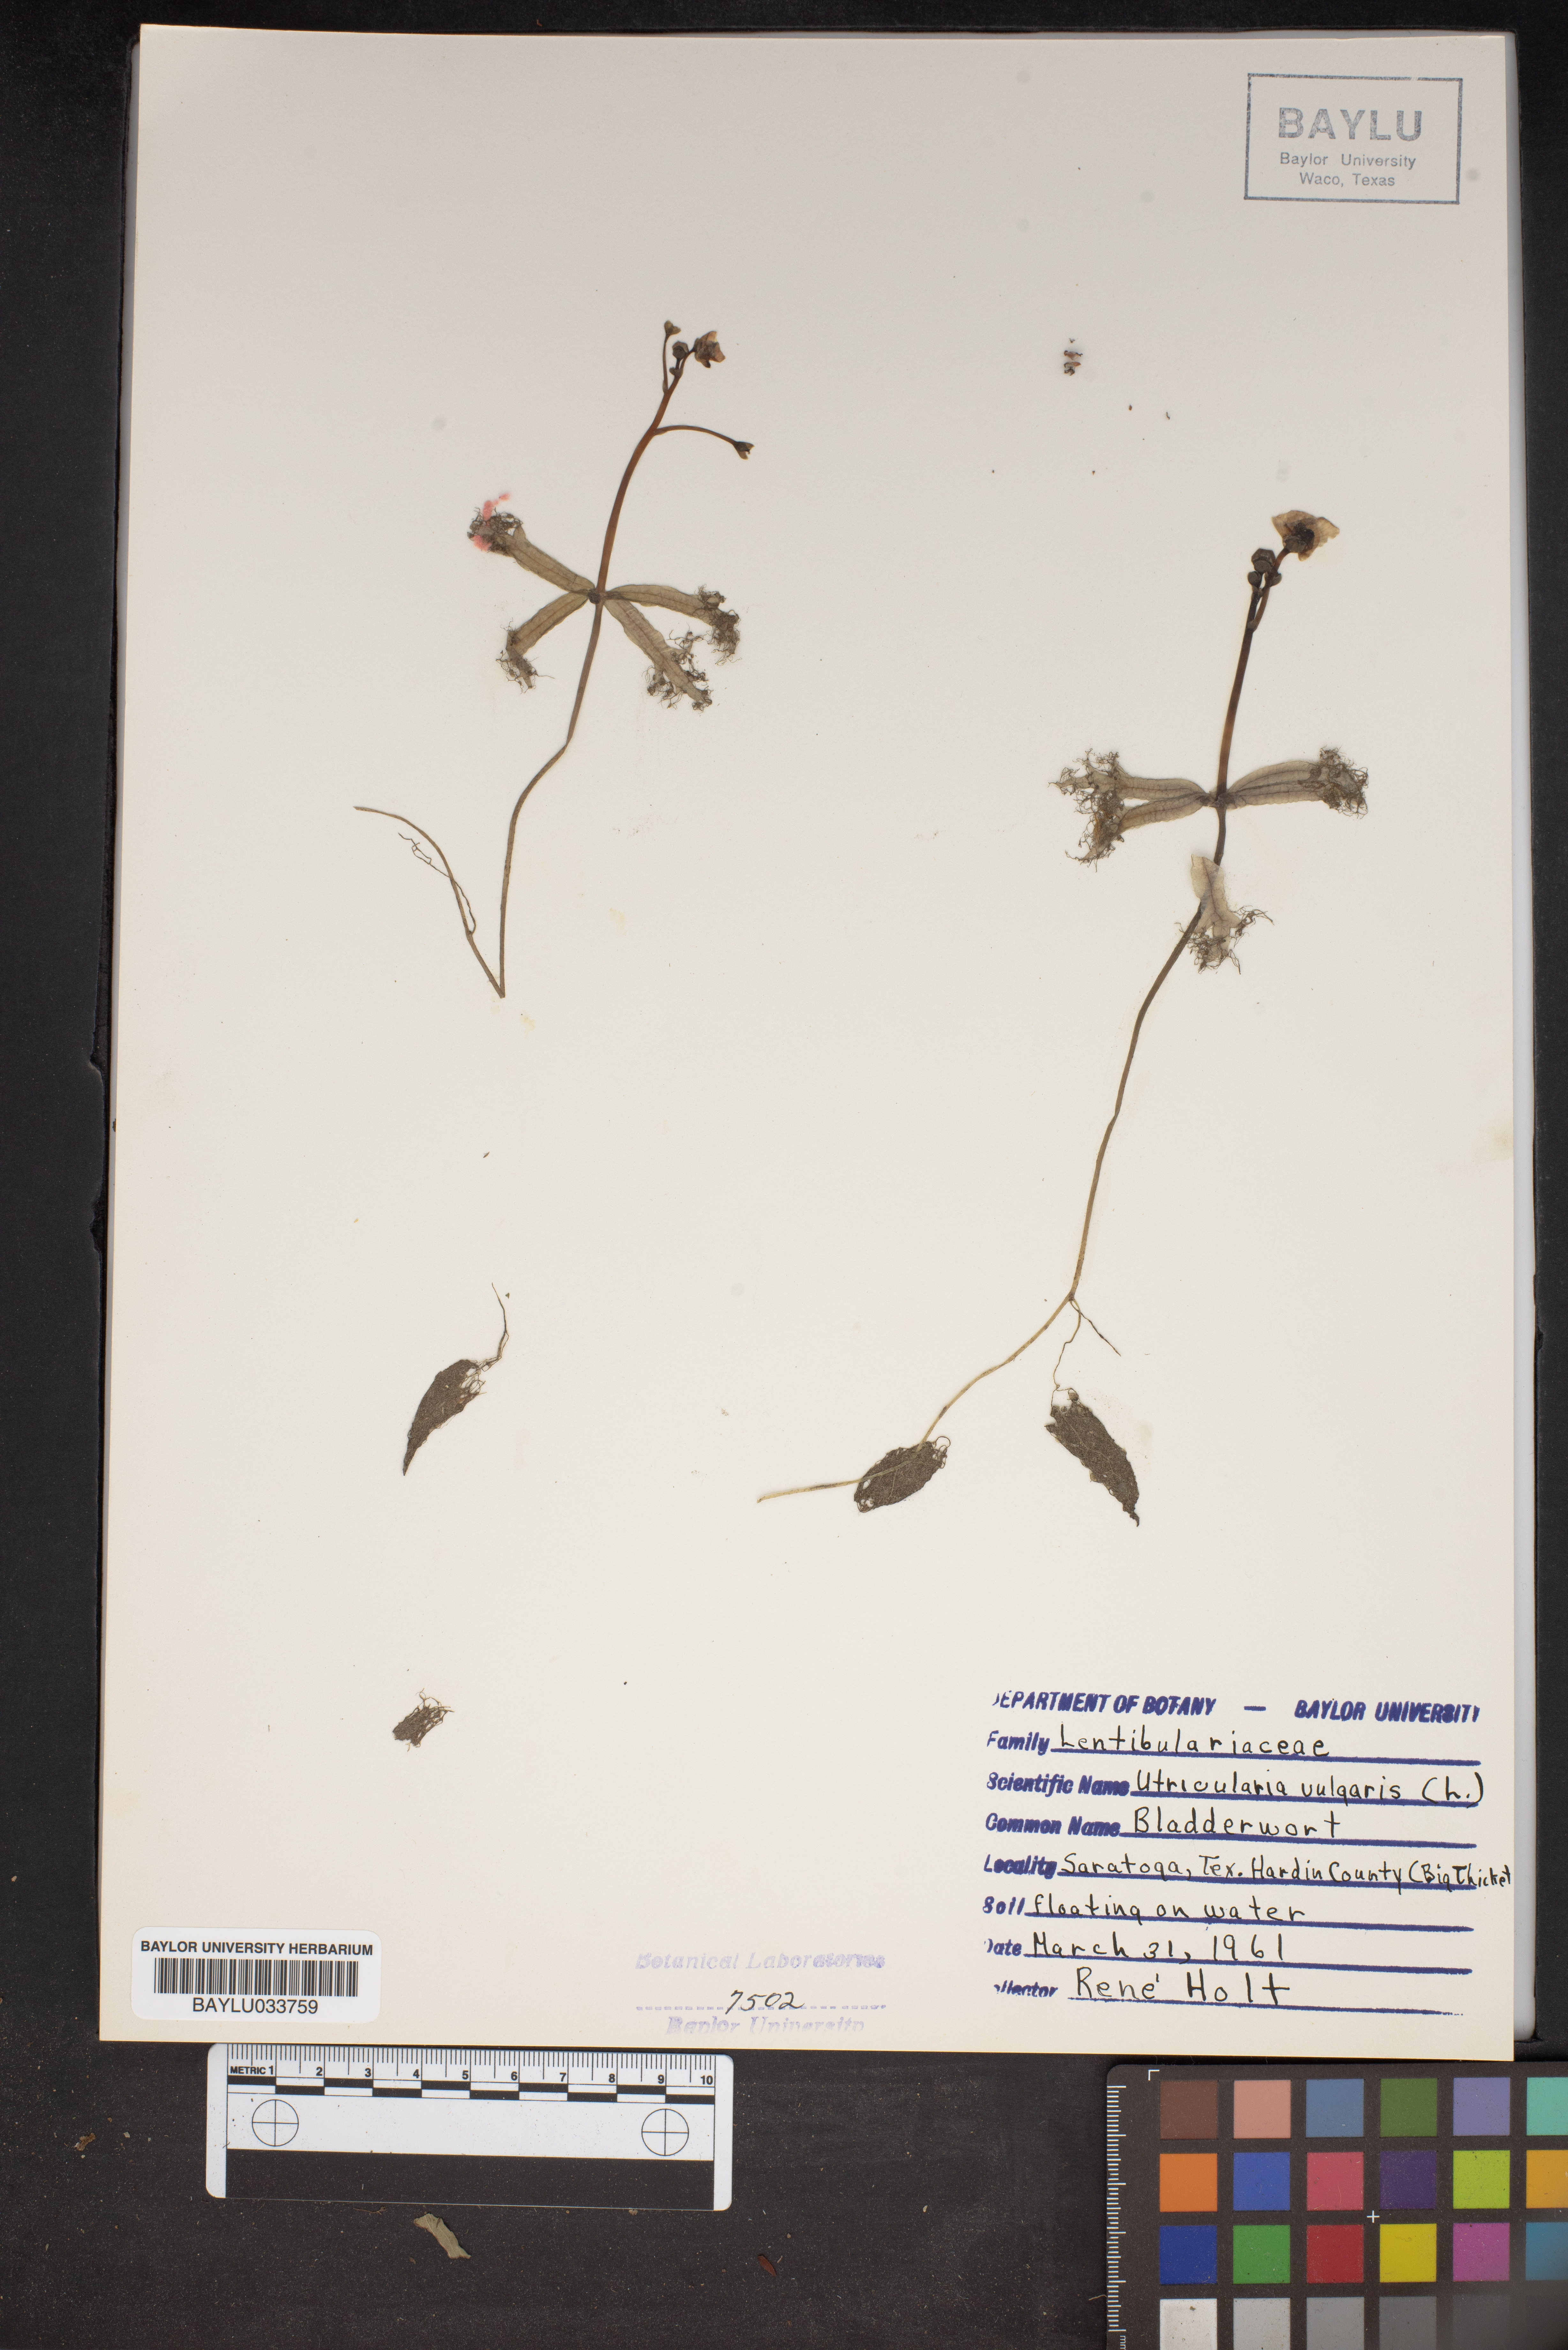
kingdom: Plantae
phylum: Tracheophyta
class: Magnoliopsida
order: Lamiales
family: Lentibulariaceae
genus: Utricularia
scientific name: Utricularia vulgaris
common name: Greater bladderwort
